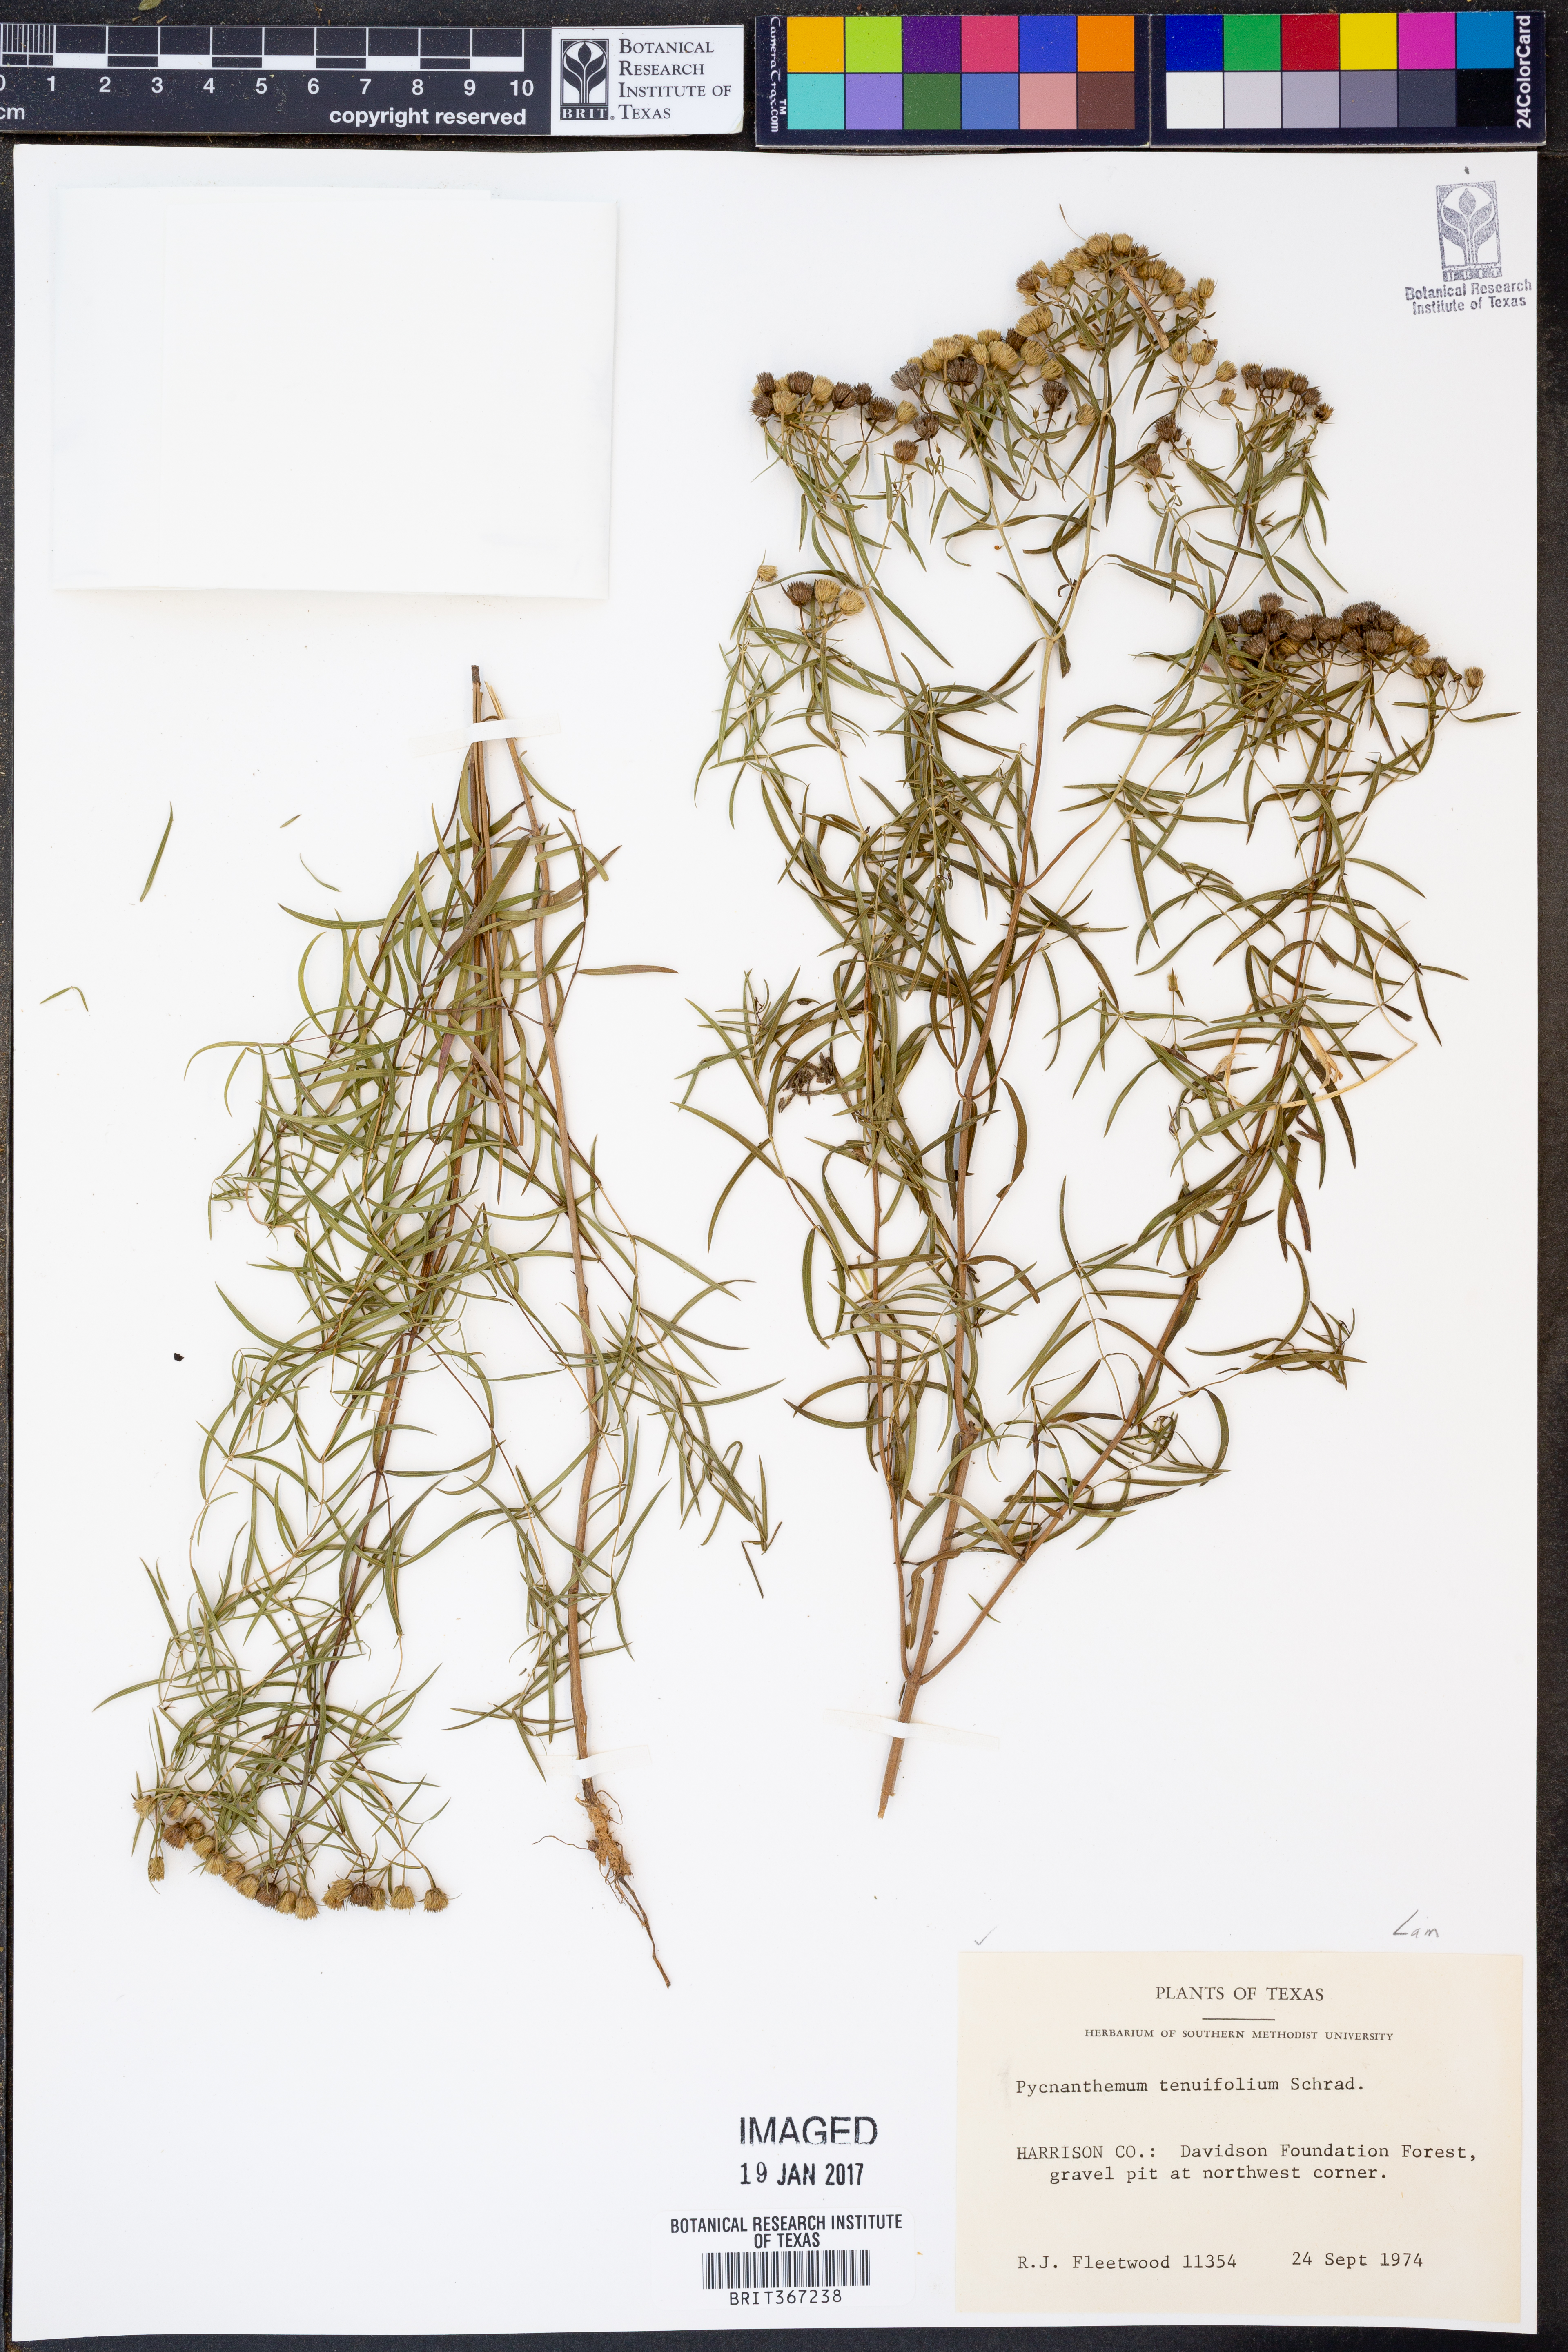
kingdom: Plantae
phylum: Tracheophyta
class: Magnoliopsida
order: Lamiales
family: Lamiaceae
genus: Pycnanthemum
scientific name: Pycnanthemum tenuifolium
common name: Narrow-leaf mountain-mint
